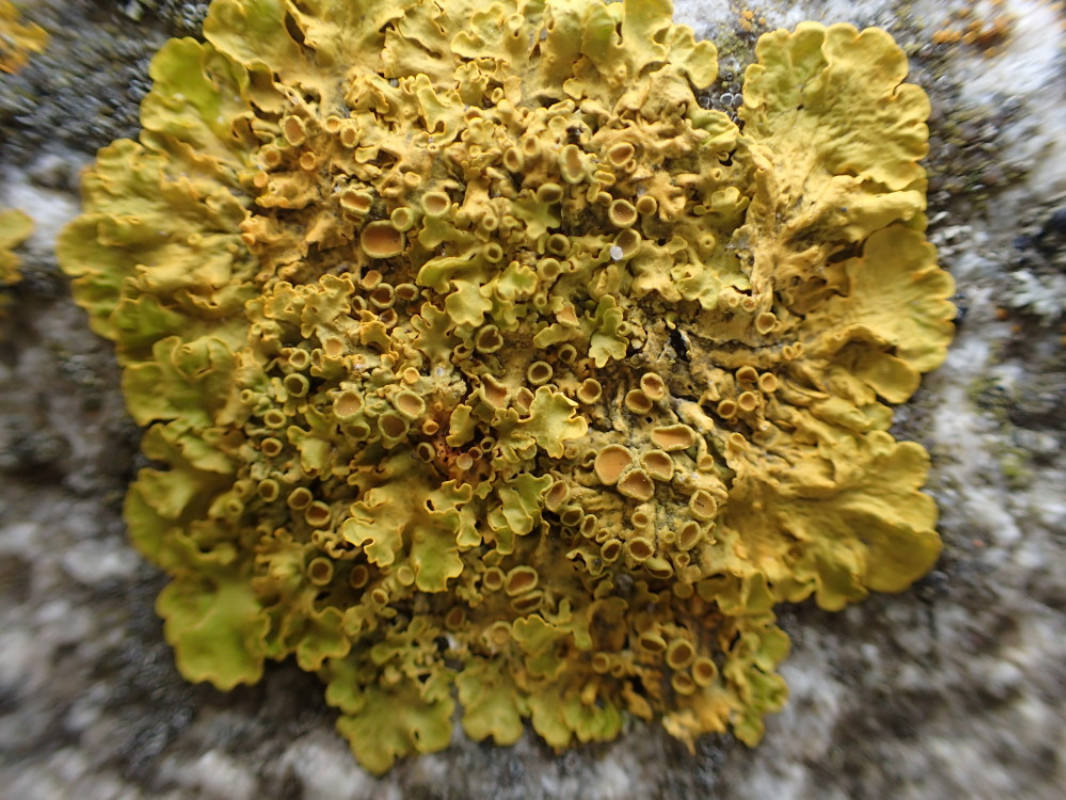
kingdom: Fungi
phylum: Ascomycota
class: Lecanoromycetes
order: Teloschistales
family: Teloschistaceae
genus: Xanthoria
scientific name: Xanthoria parietina
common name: almindelig væggelav
